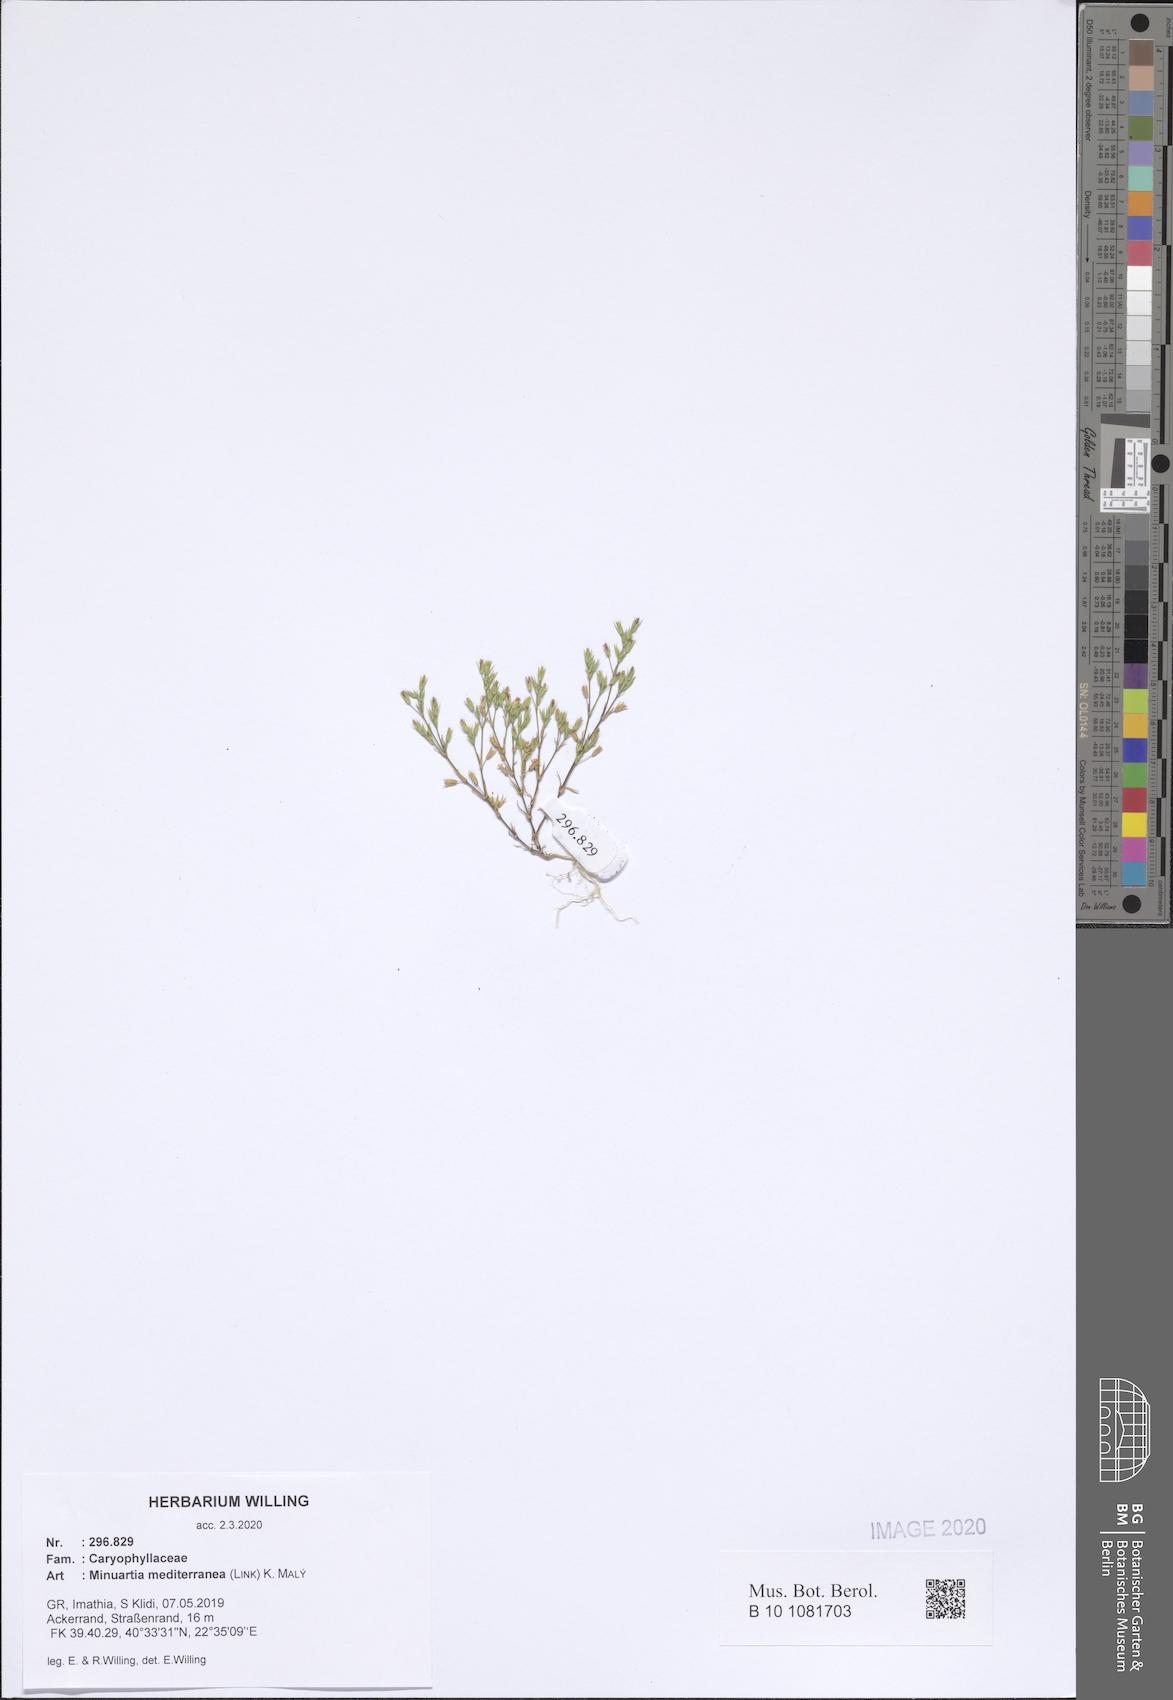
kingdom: Plantae
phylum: Tracheophyta
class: Magnoliopsida
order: Caryophyllales
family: Caryophyllaceae
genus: Sabulina
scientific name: Sabulina mediterranea
